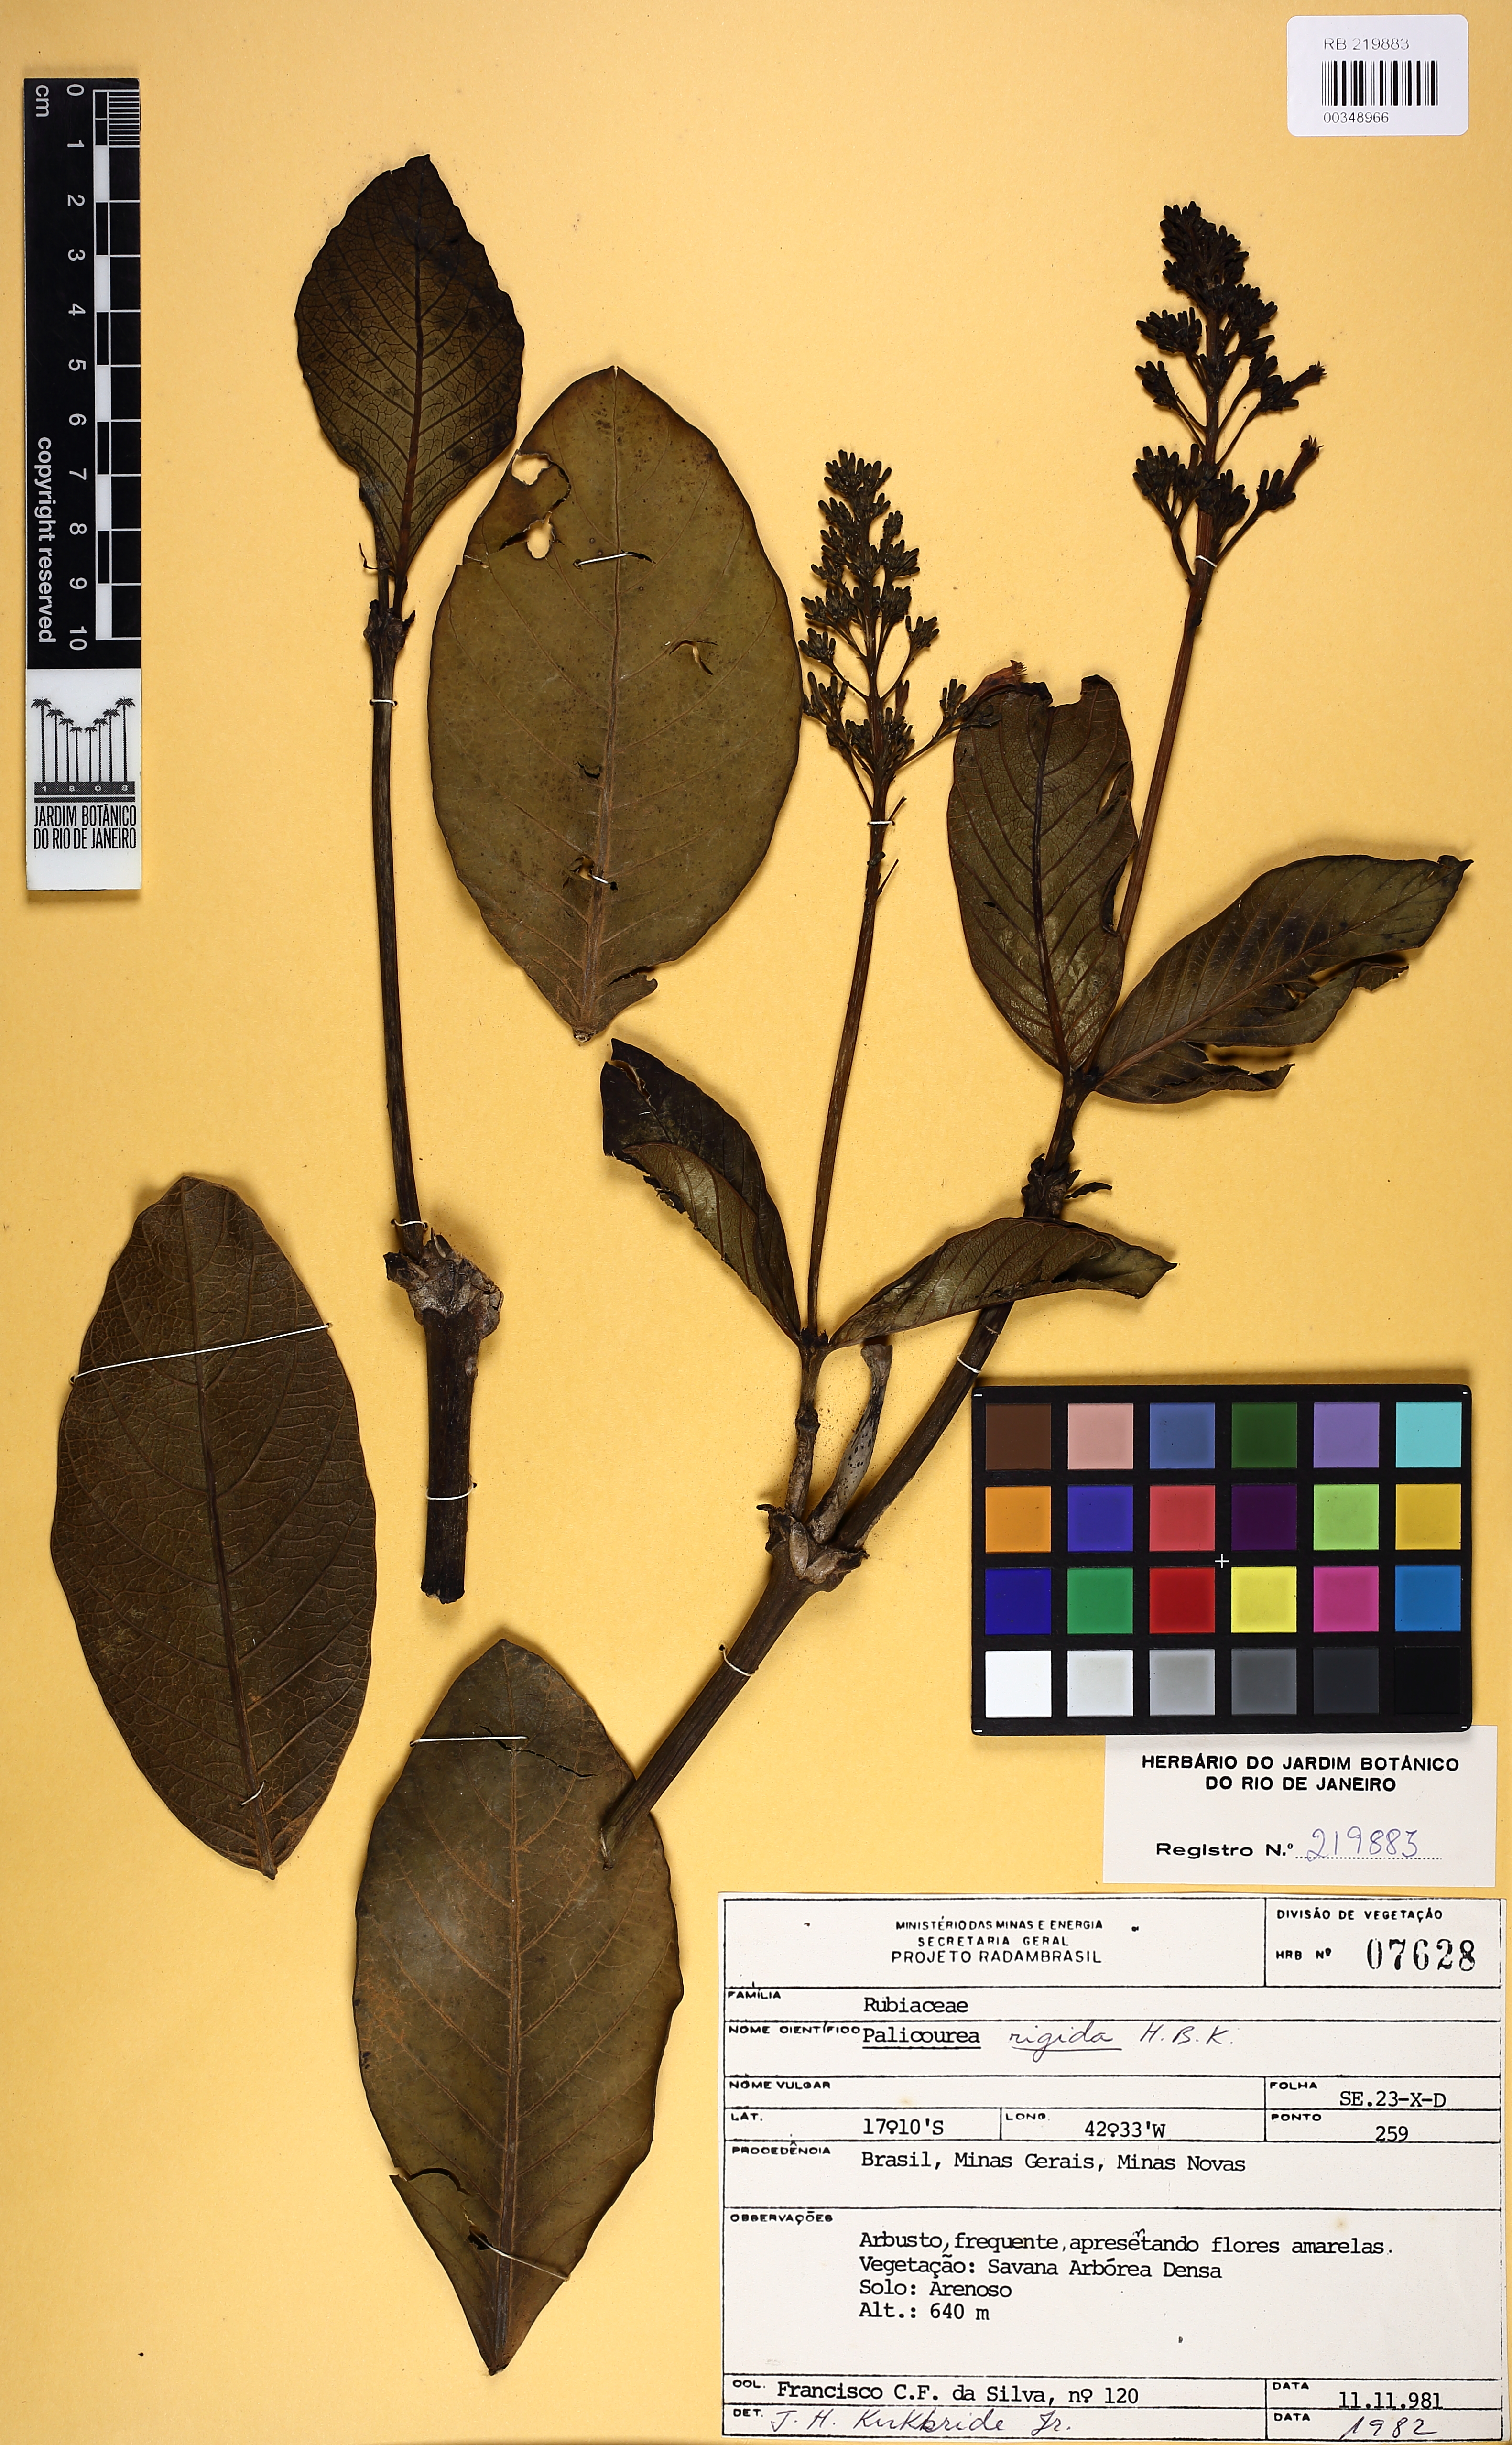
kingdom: Plantae
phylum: Tracheophyta
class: Magnoliopsida
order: Gentianales
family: Rubiaceae
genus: Palicourea
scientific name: Palicourea rigida
